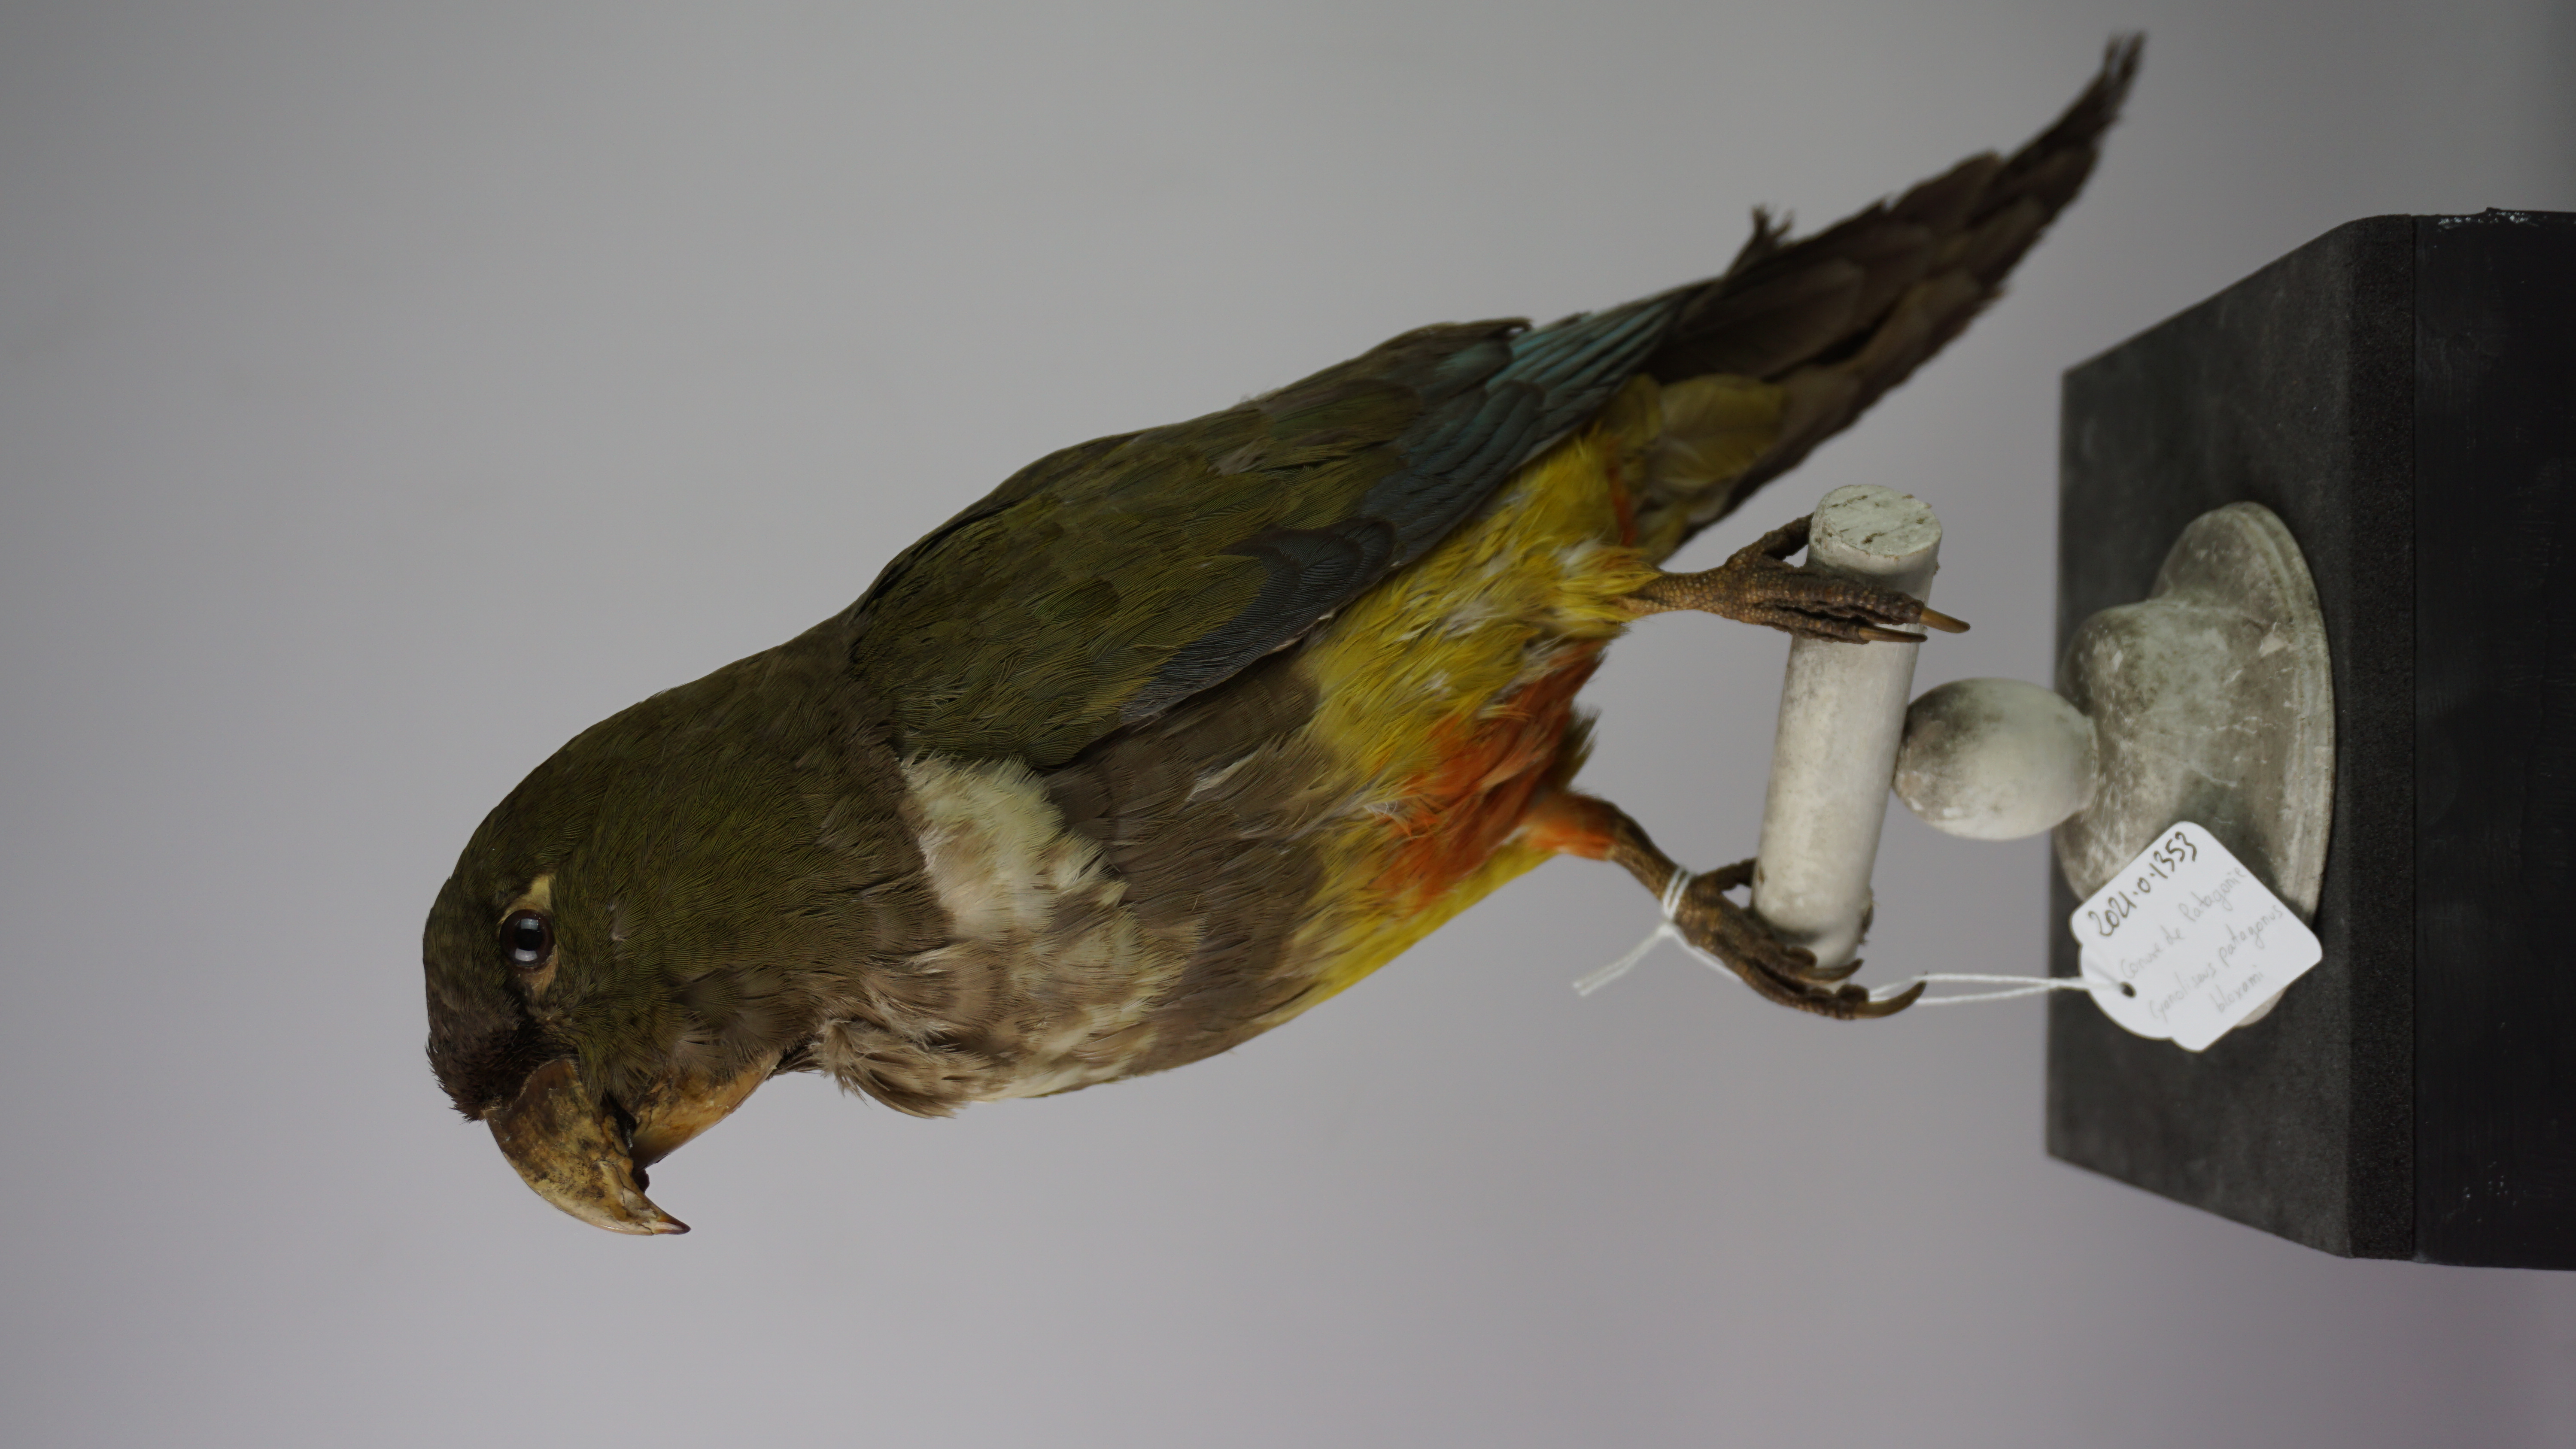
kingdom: Animalia
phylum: Chordata
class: Aves
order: Psittaciformes
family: Psittacidae
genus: Cyanoliseus
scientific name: Cyanoliseus patagonus
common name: Burrowing parrot
